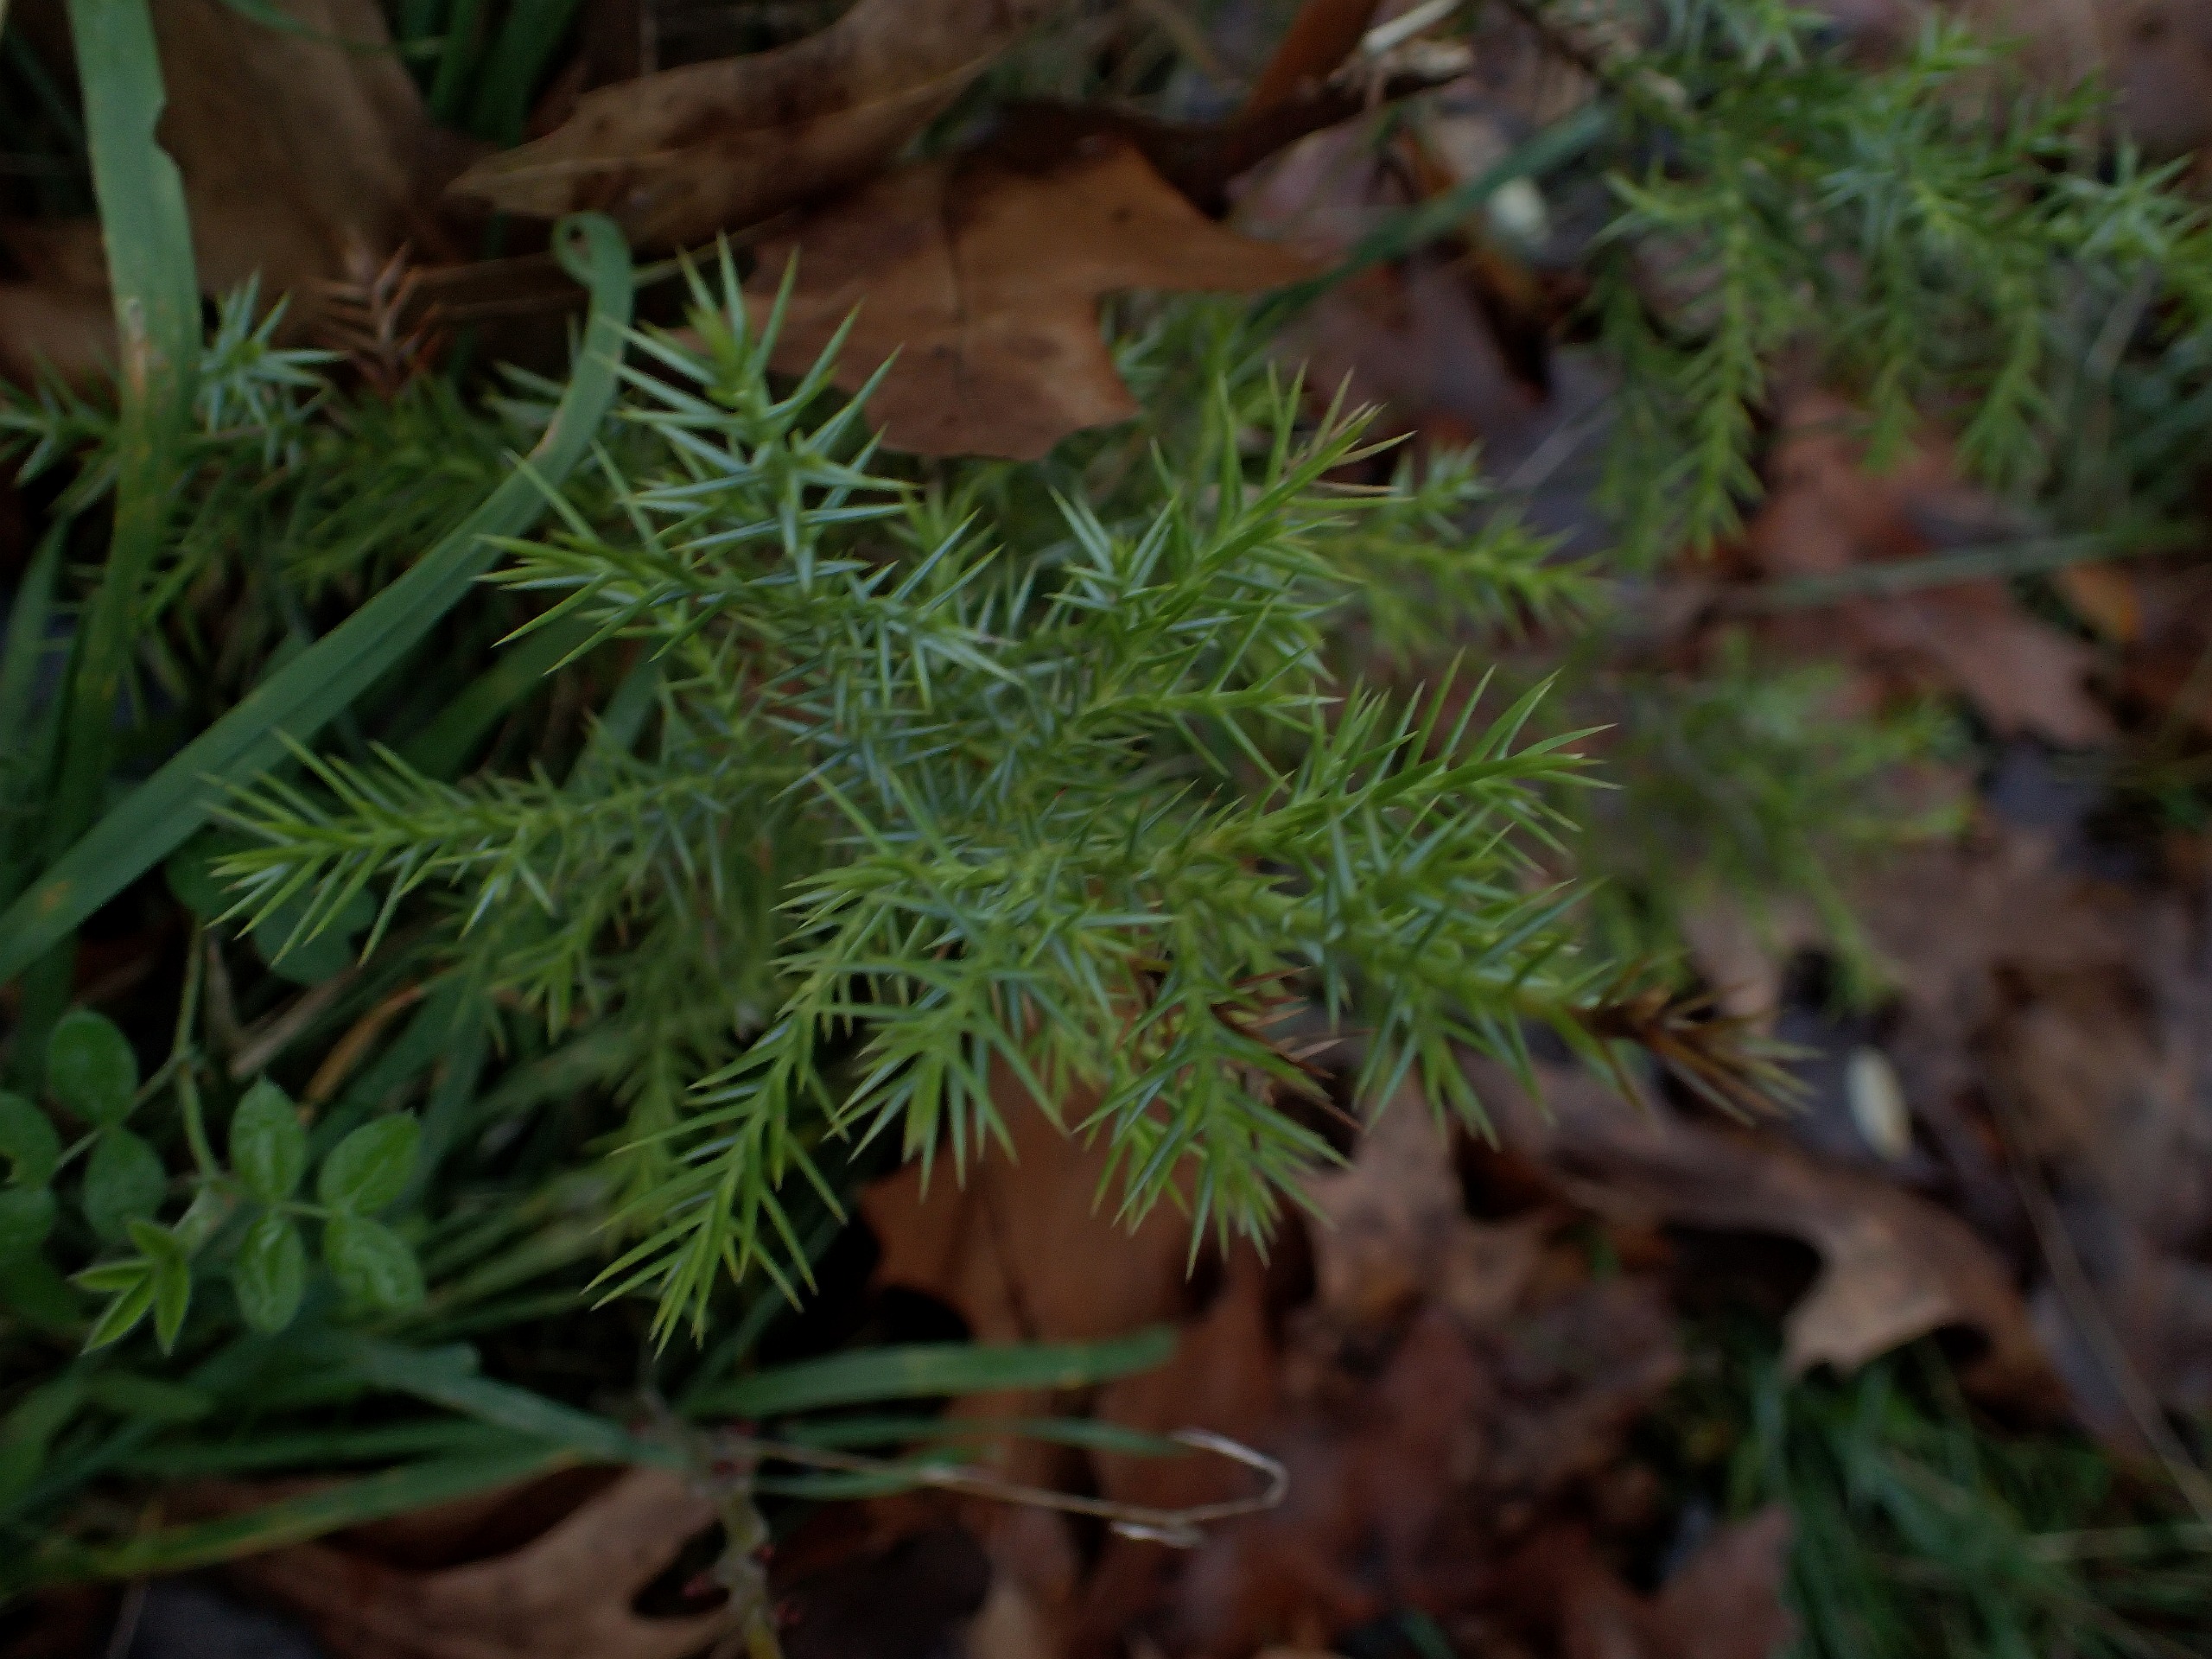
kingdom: Plantae
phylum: Tracheophyta
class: Pinopsida
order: Pinales
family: Cupressaceae
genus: Juniperus
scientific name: Juniperus communis
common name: Almindelig ene
